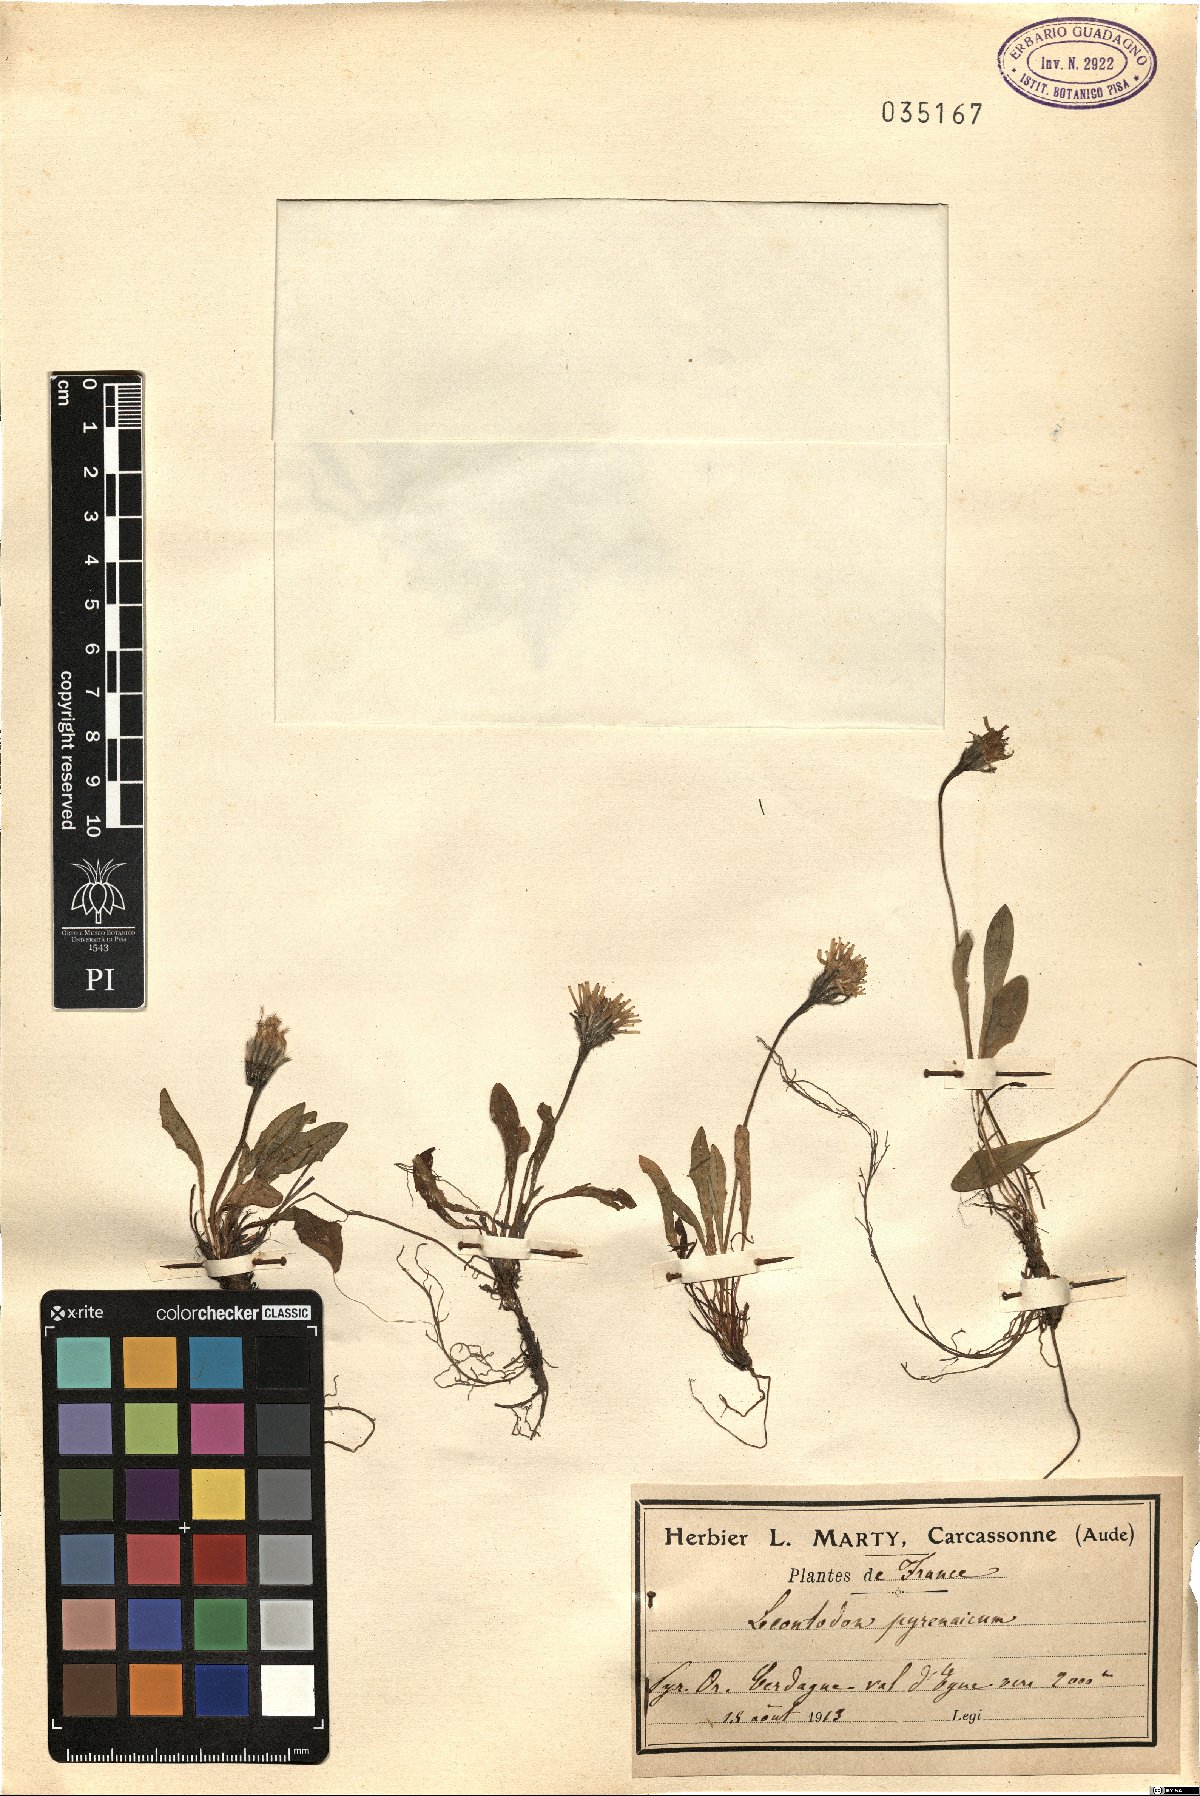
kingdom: Plantae
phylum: Tracheophyta
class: Magnoliopsida
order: Asterales
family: Asteraceae
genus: Scorzoneroides
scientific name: Scorzoneroides pyrenaica
